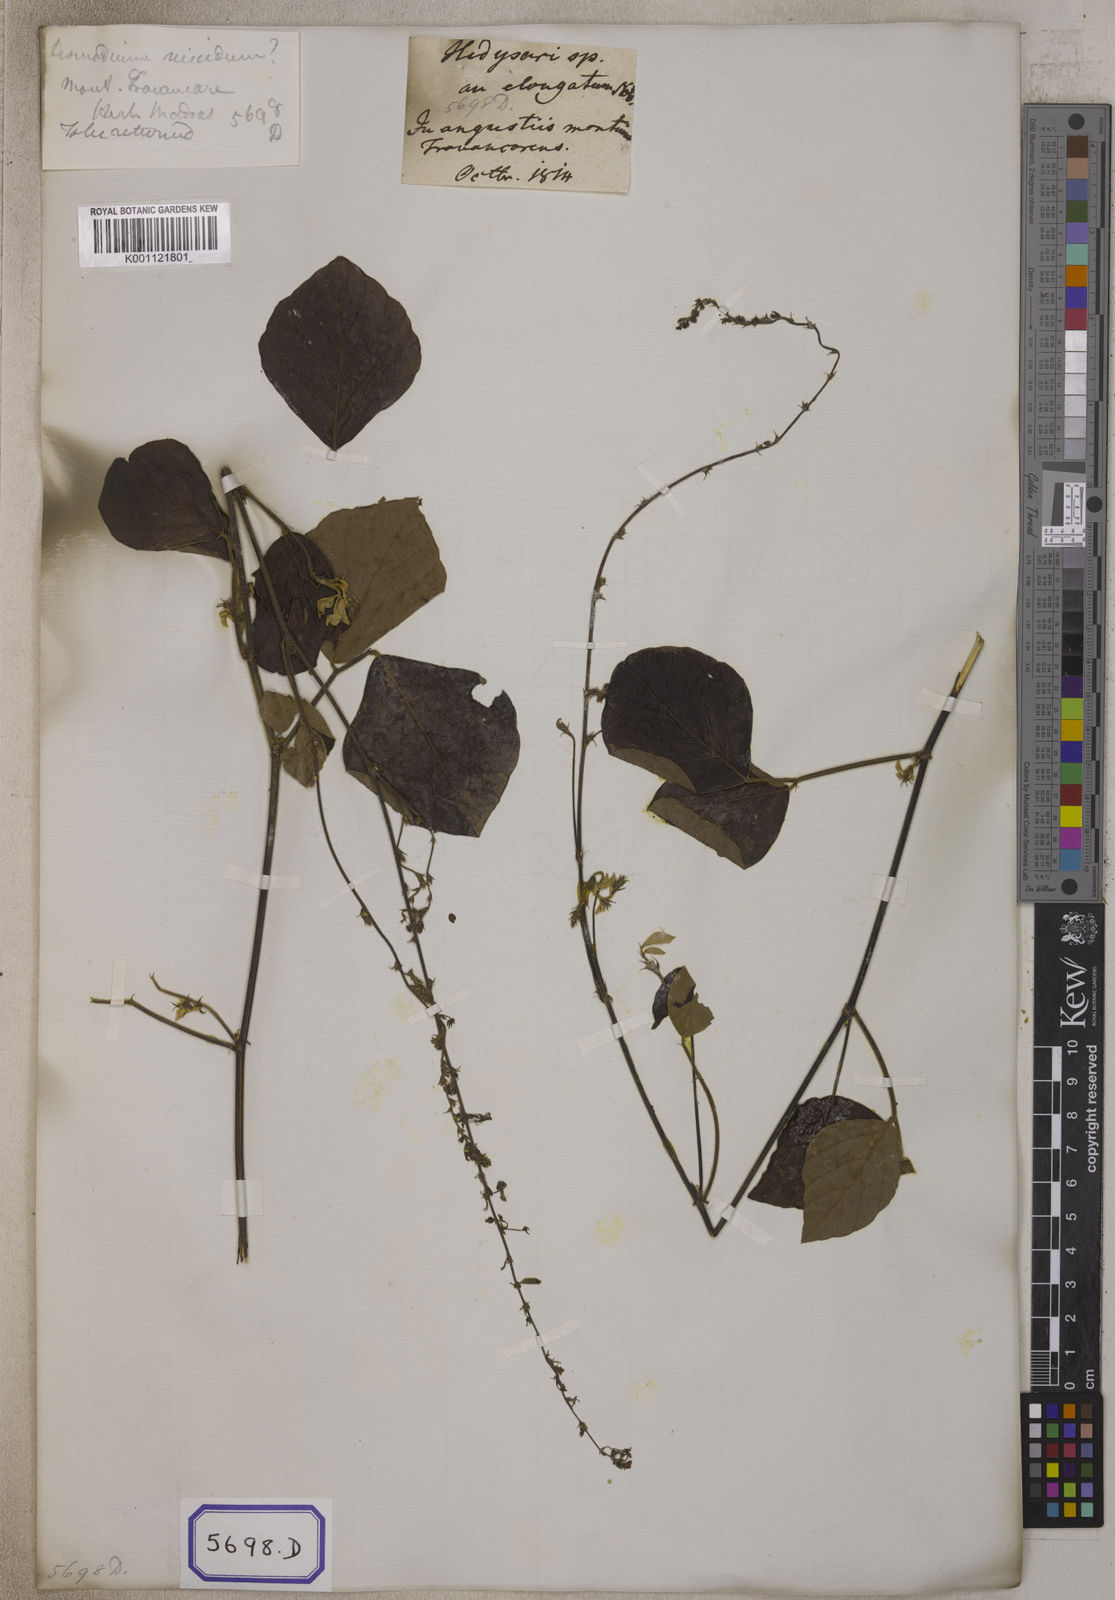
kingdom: Plantae
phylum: Tracheophyta
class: Magnoliopsida
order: Fabales
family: Fabaceae
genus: Pseudarthria
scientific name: Pseudarthria viscida
